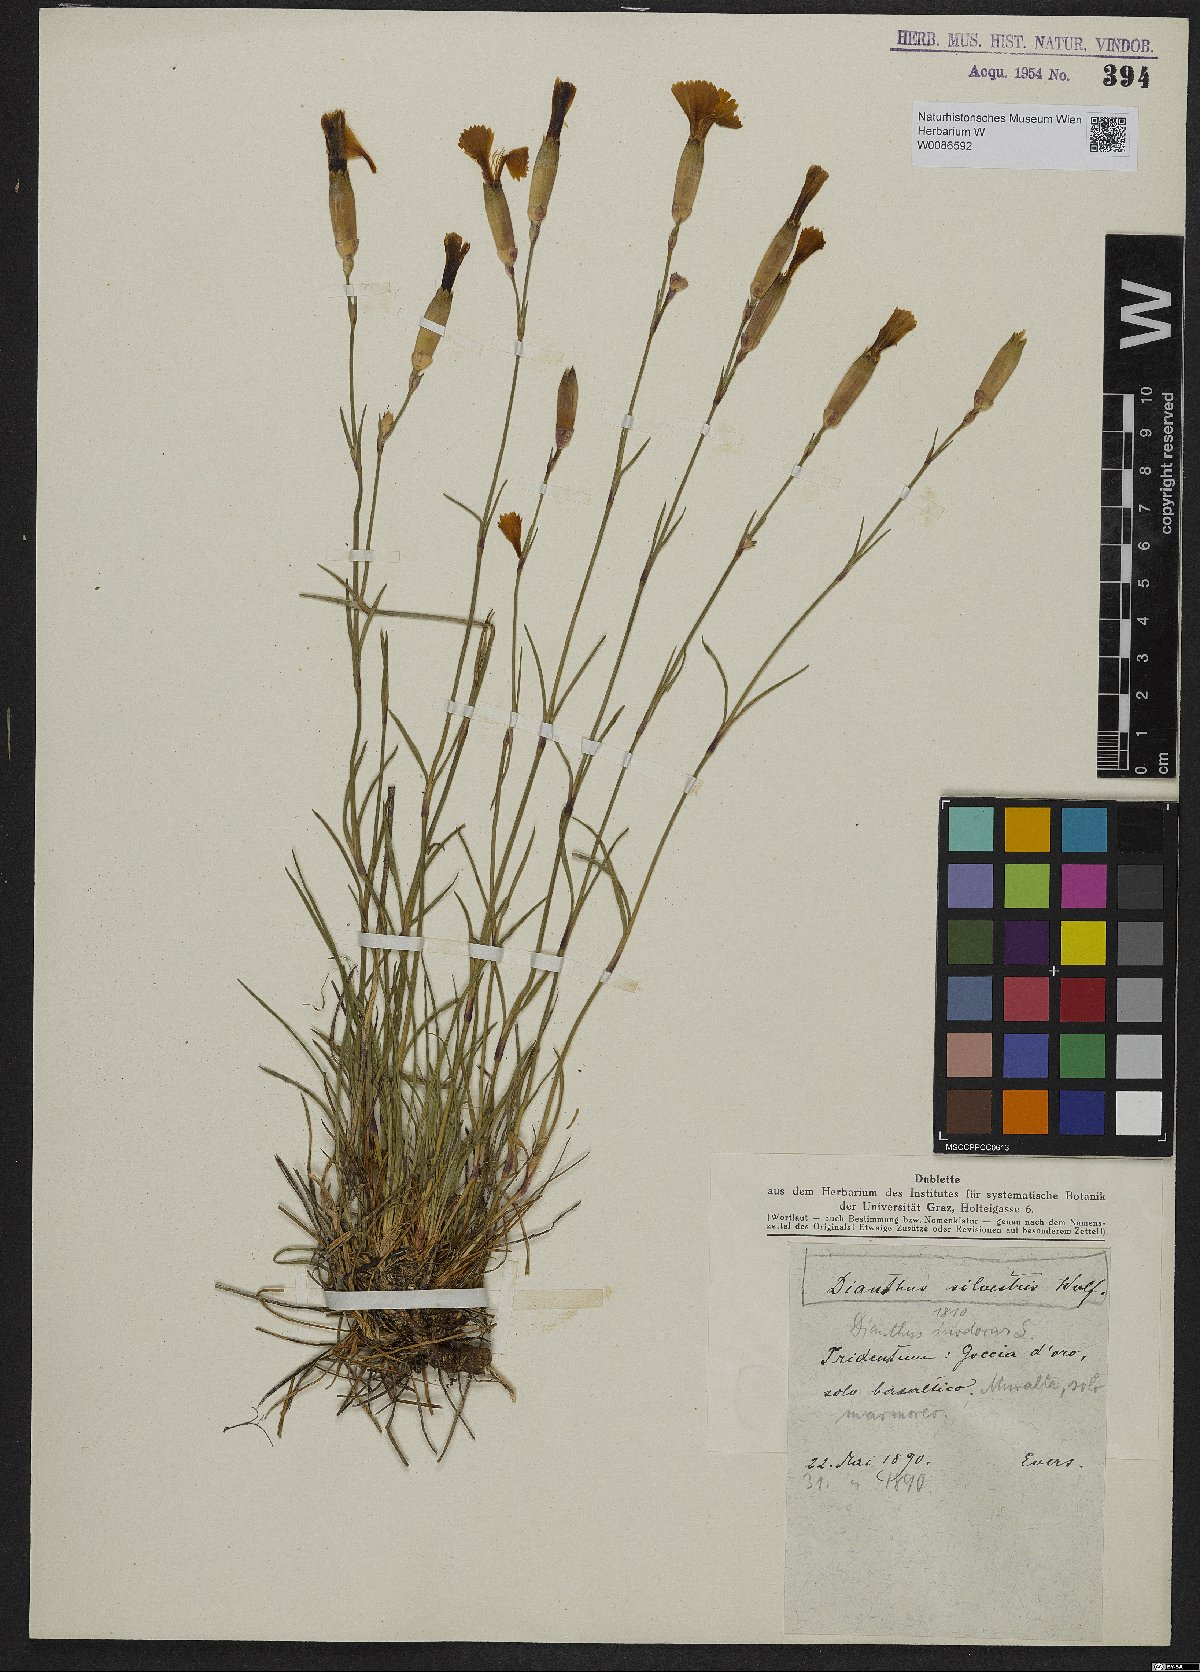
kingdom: Plantae
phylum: Tracheophyta
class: Magnoliopsida
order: Caryophyllales
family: Caryophyllaceae
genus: Dianthus
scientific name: Dianthus sylvestris
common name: Wood pink
